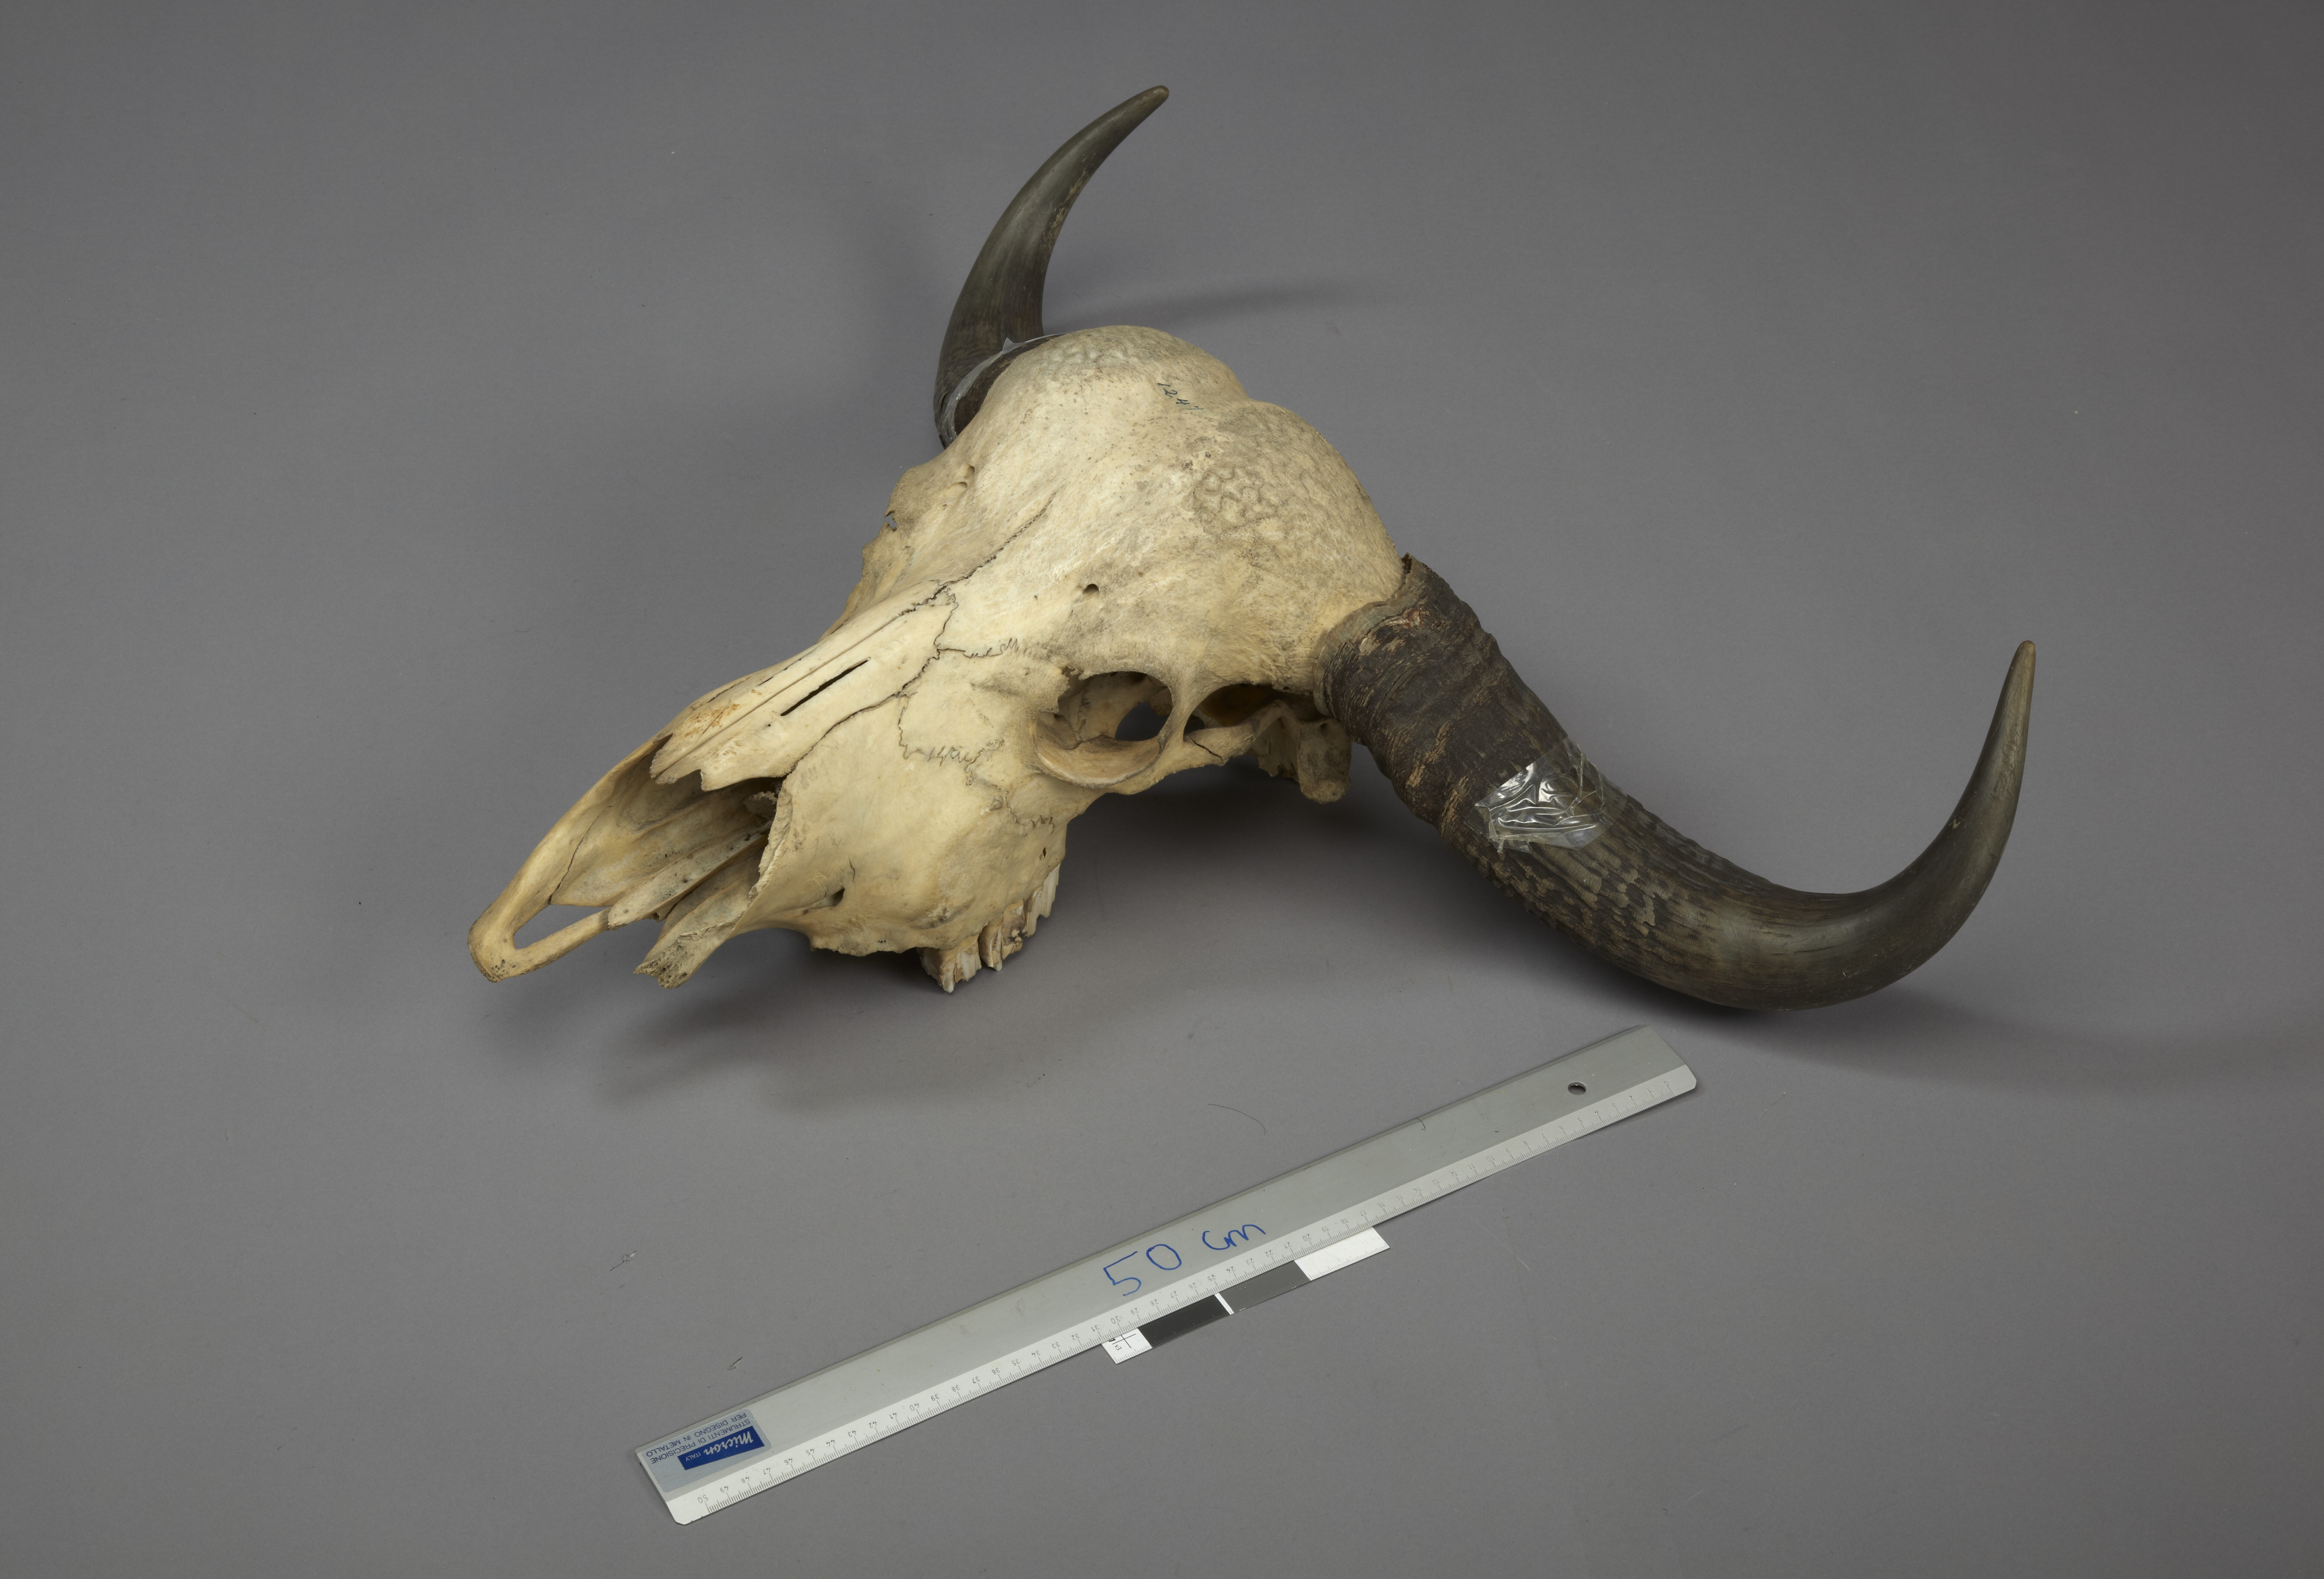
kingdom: Animalia
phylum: Chordata
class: Mammalia
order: Artiodactyla
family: Bovidae
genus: Bos
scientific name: Bos
